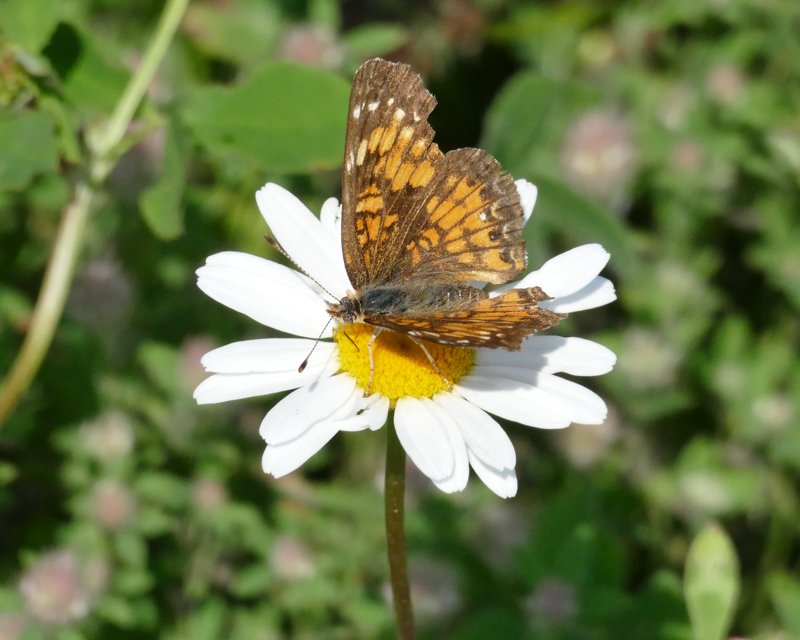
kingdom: Animalia
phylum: Arthropoda
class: Insecta
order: Lepidoptera
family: Nymphalidae
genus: Chlosyne
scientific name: Chlosyne harrisii
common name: Harris's Checkerspot
